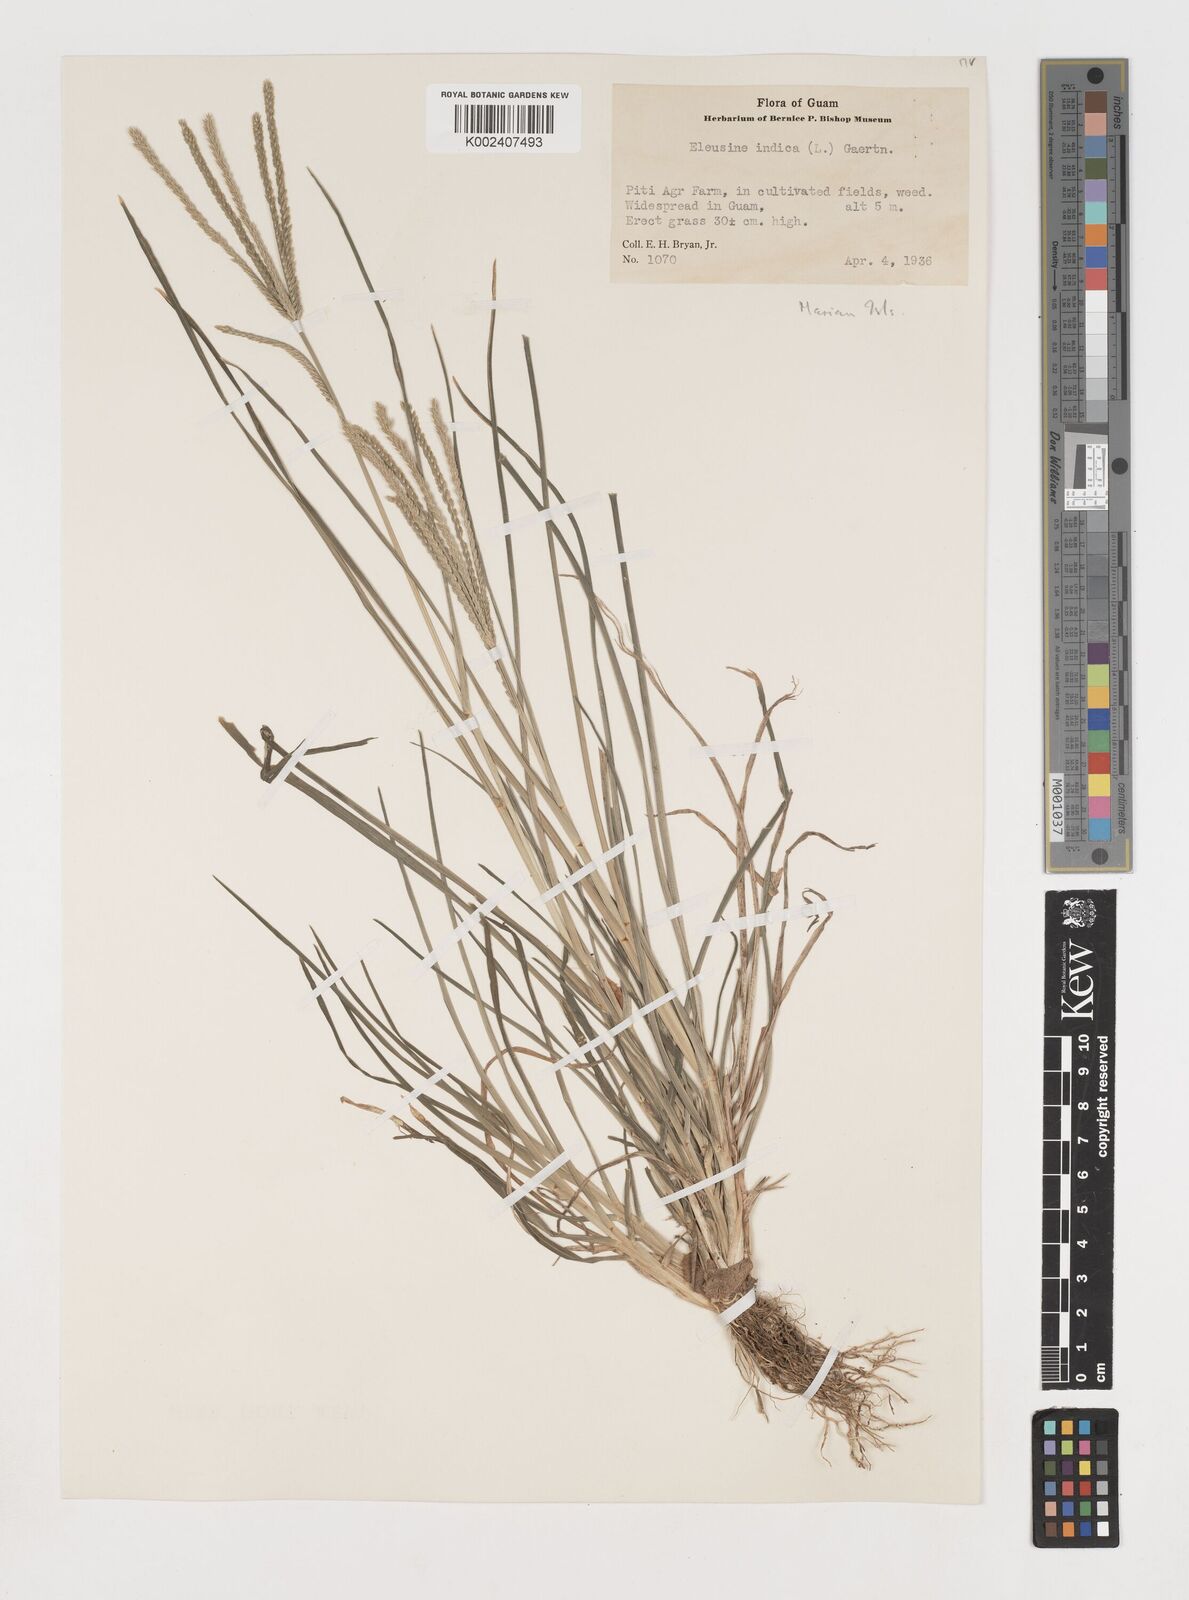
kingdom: Plantae
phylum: Tracheophyta
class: Liliopsida
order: Poales
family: Poaceae
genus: Eleusine
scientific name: Eleusine indica
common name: Yard-grass
